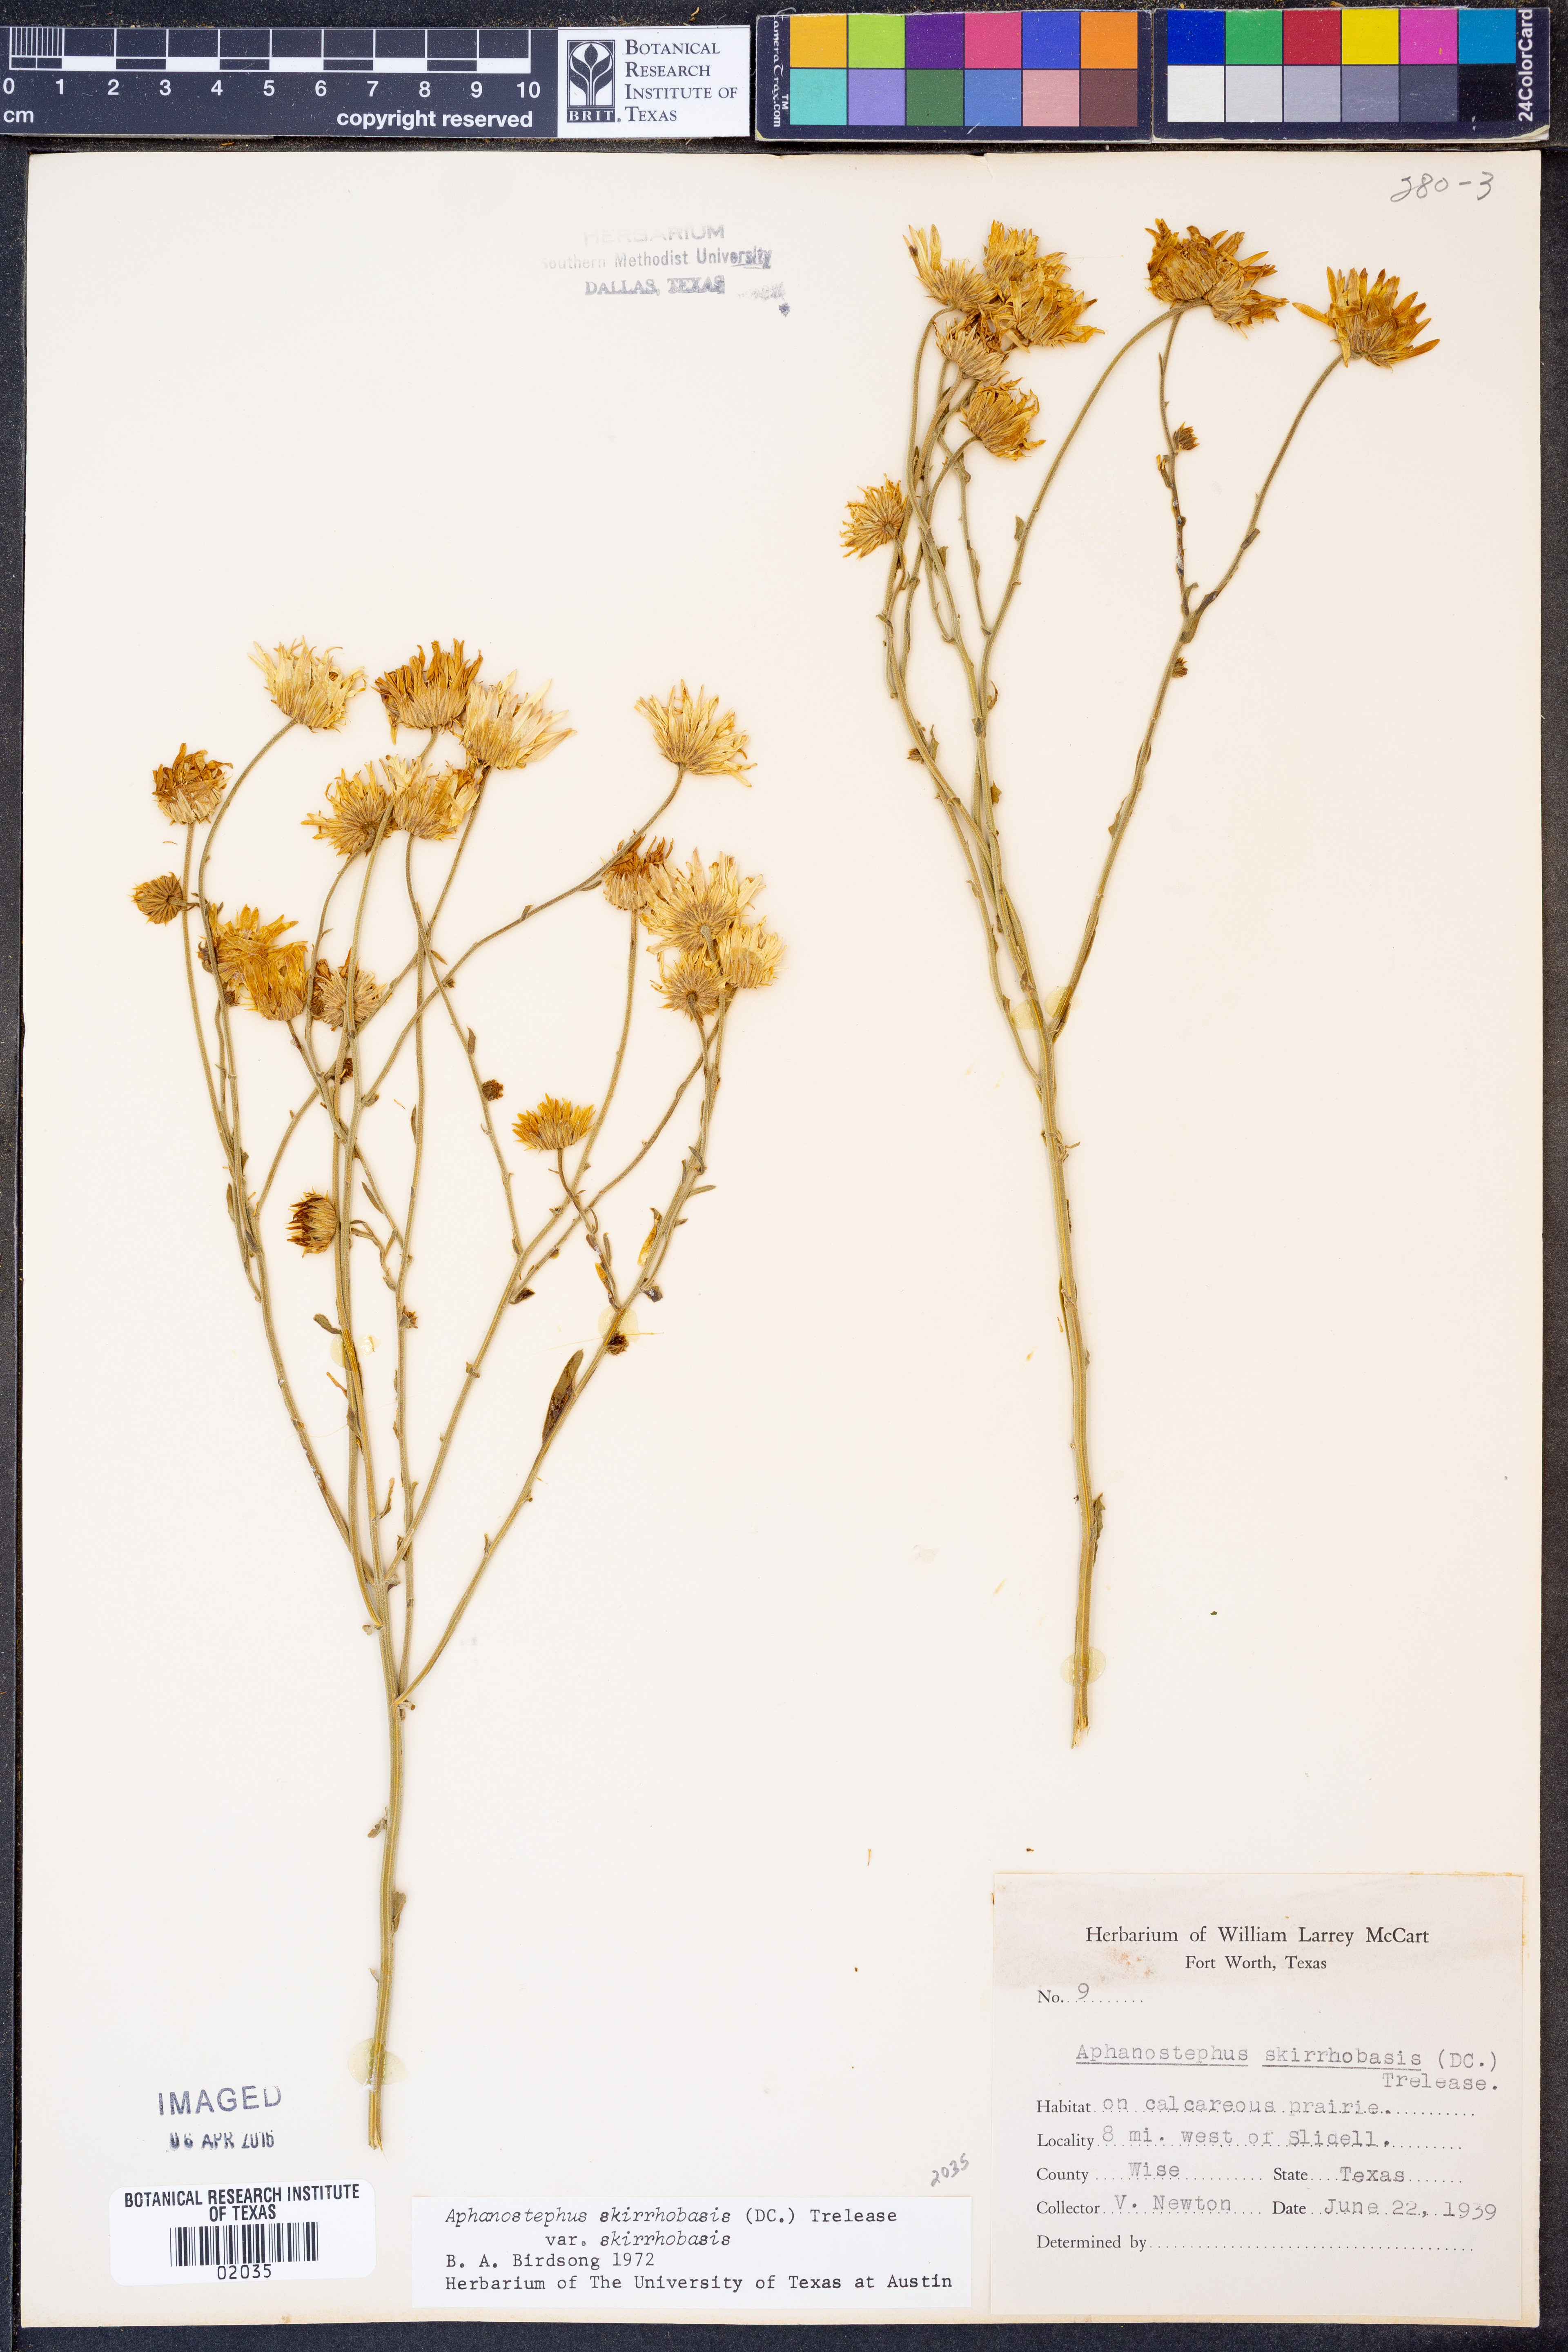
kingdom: Plantae
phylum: Tracheophyta
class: Magnoliopsida
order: Asterales
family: Asteraceae
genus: Aphanostephus
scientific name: Aphanostephus skirrhobasis
